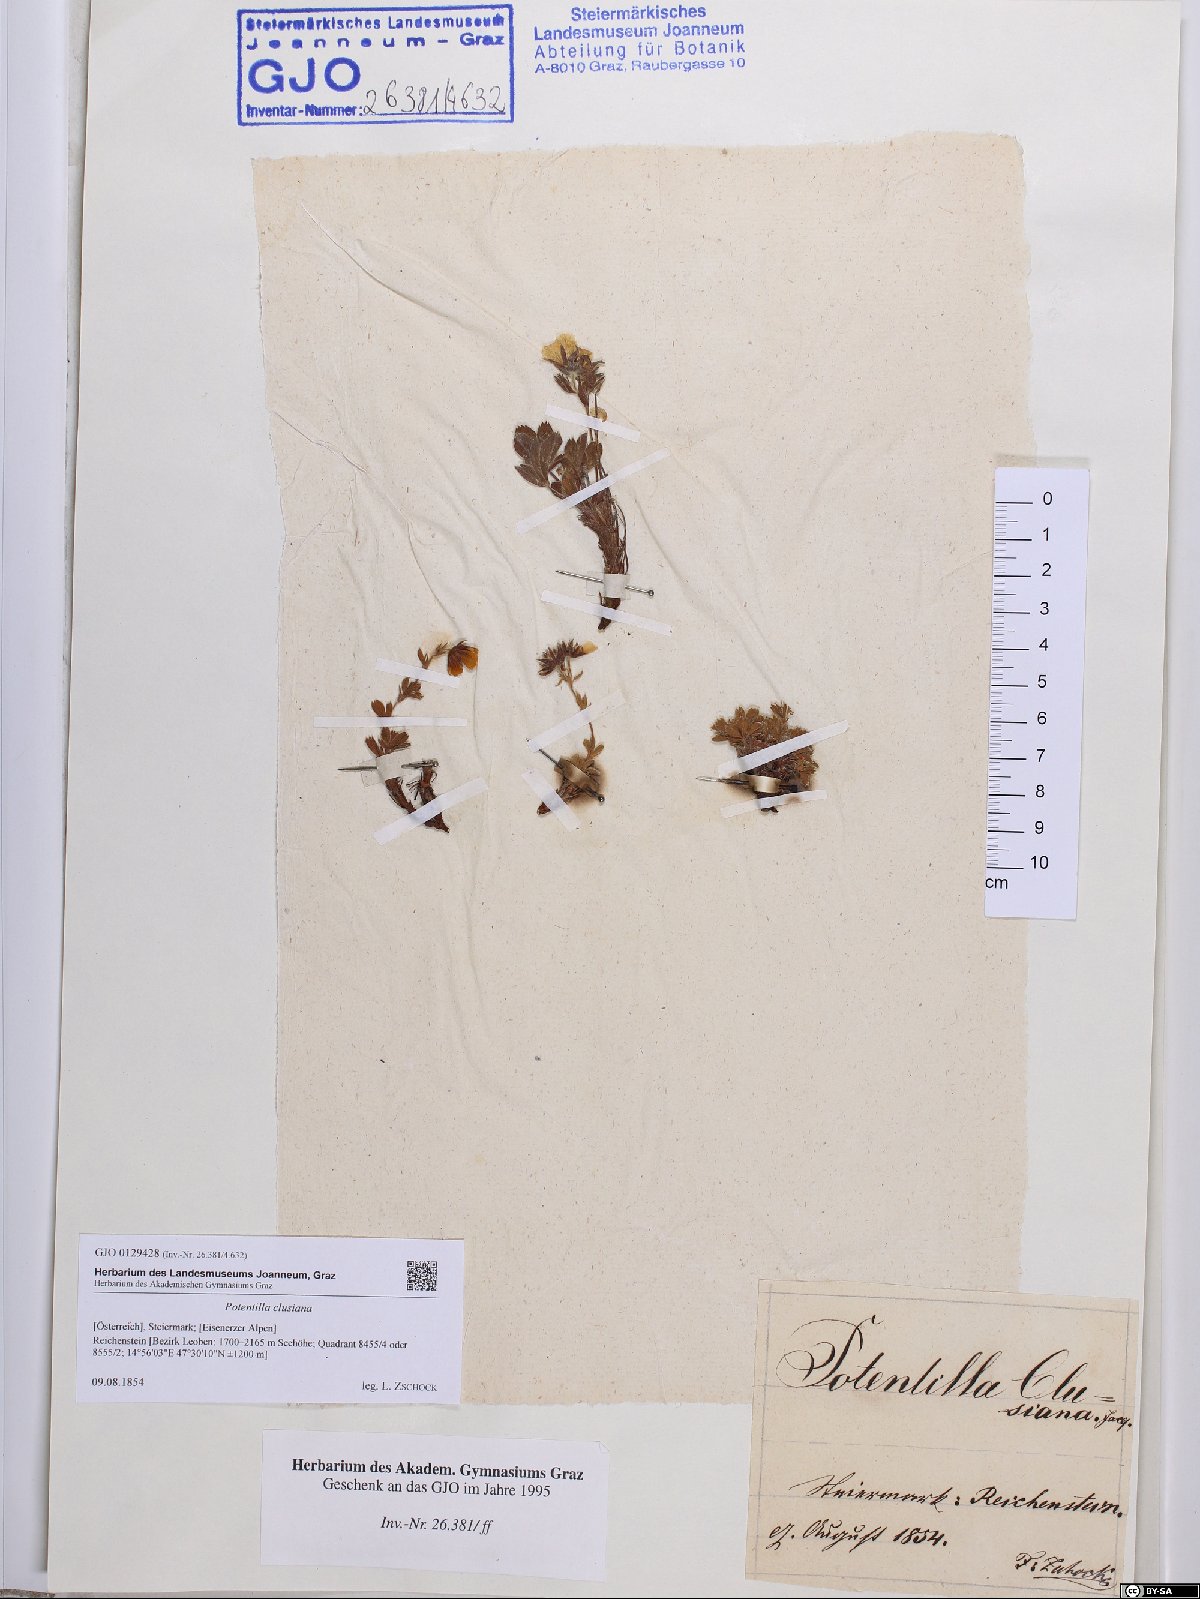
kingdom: Plantae
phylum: Tracheophyta
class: Magnoliopsida
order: Rosales
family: Rosaceae
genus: Potentilla
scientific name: Potentilla clusiana
